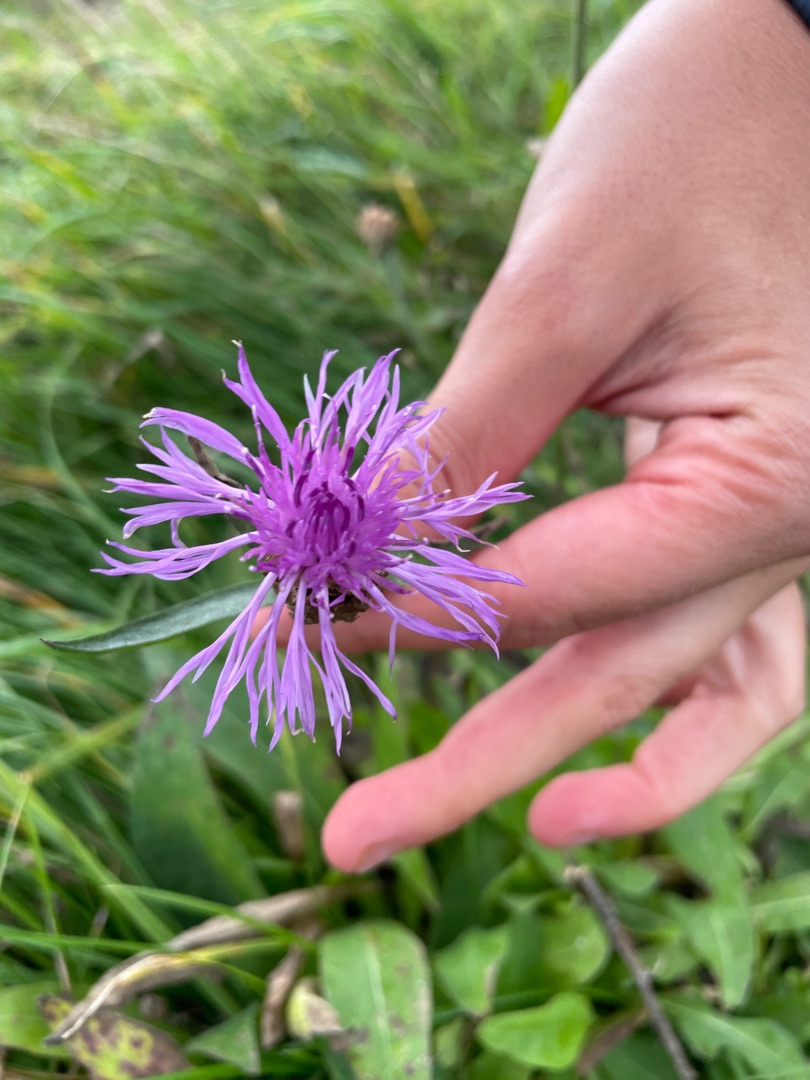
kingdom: Plantae
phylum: Tracheophyta
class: Magnoliopsida
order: Asterales
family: Asteraceae
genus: Centaurea
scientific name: Centaurea jacea
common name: Almindelig knopurt
